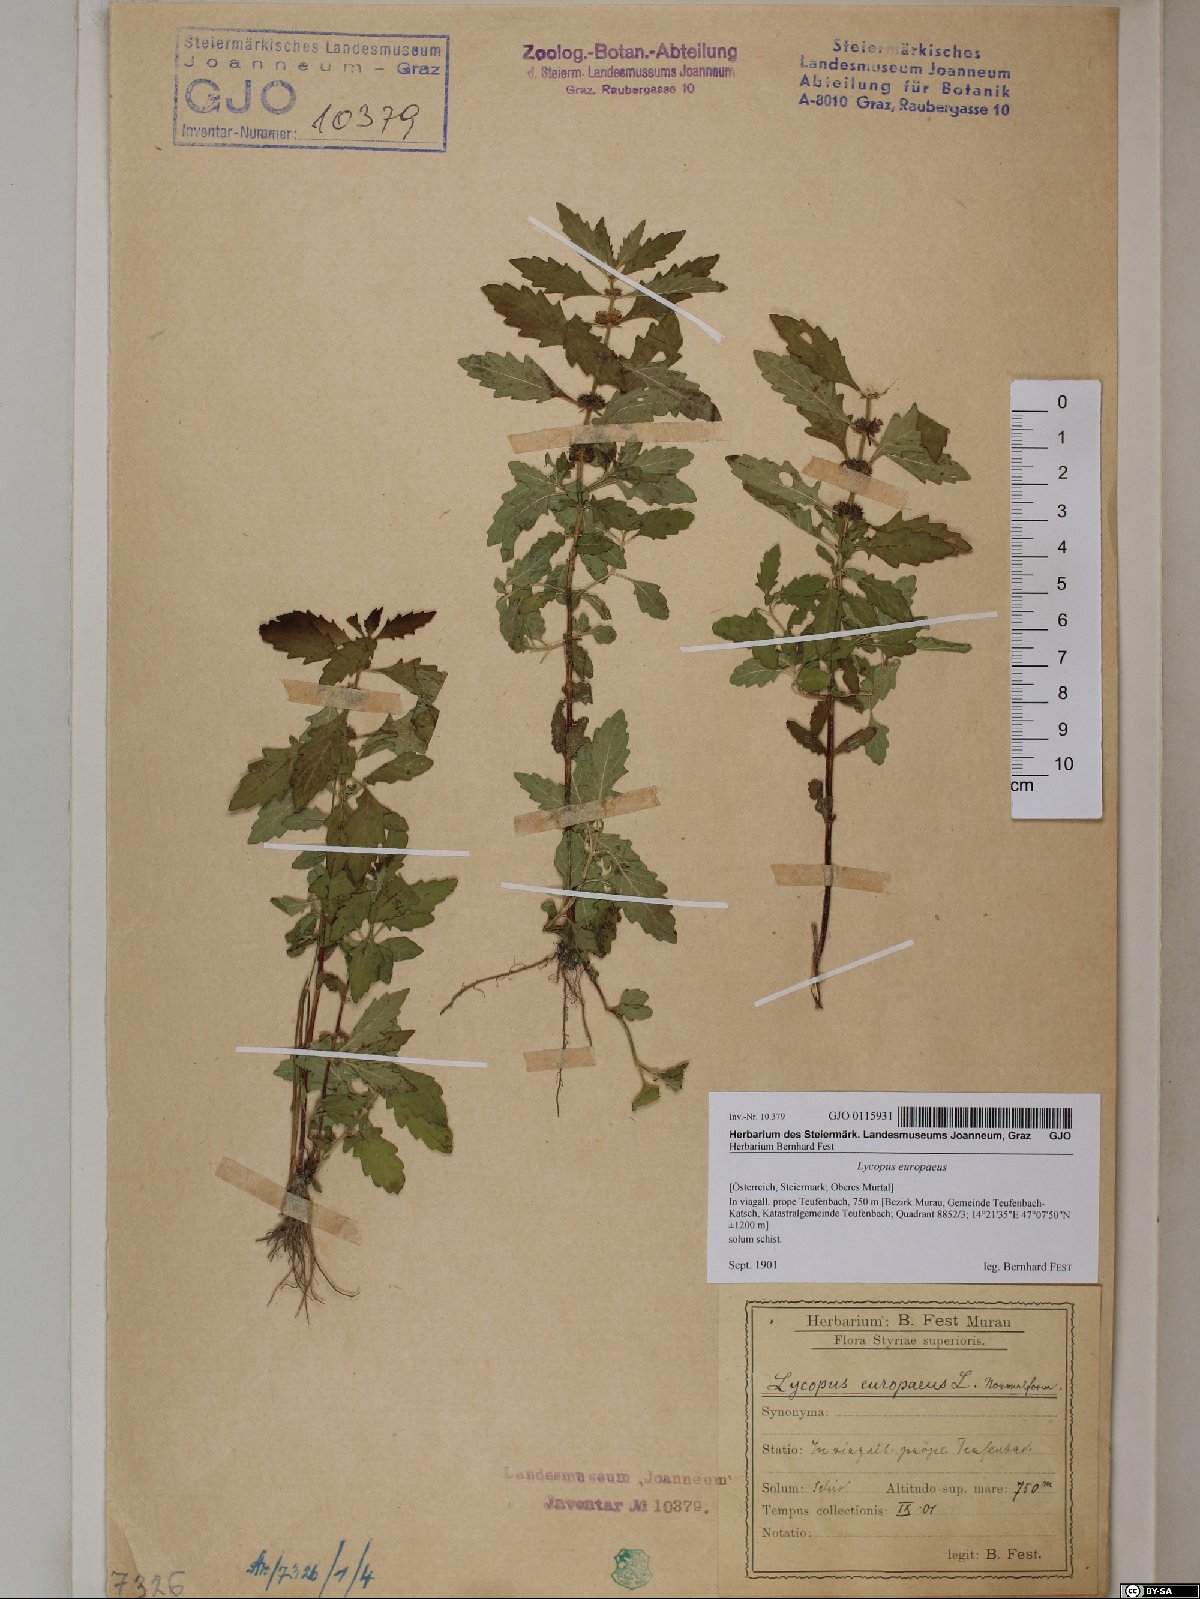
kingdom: Plantae
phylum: Tracheophyta
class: Magnoliopsida
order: Lamiales
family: Lamiaceae
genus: Lycopus
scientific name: Lycopus europaeus
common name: European bugleweed
